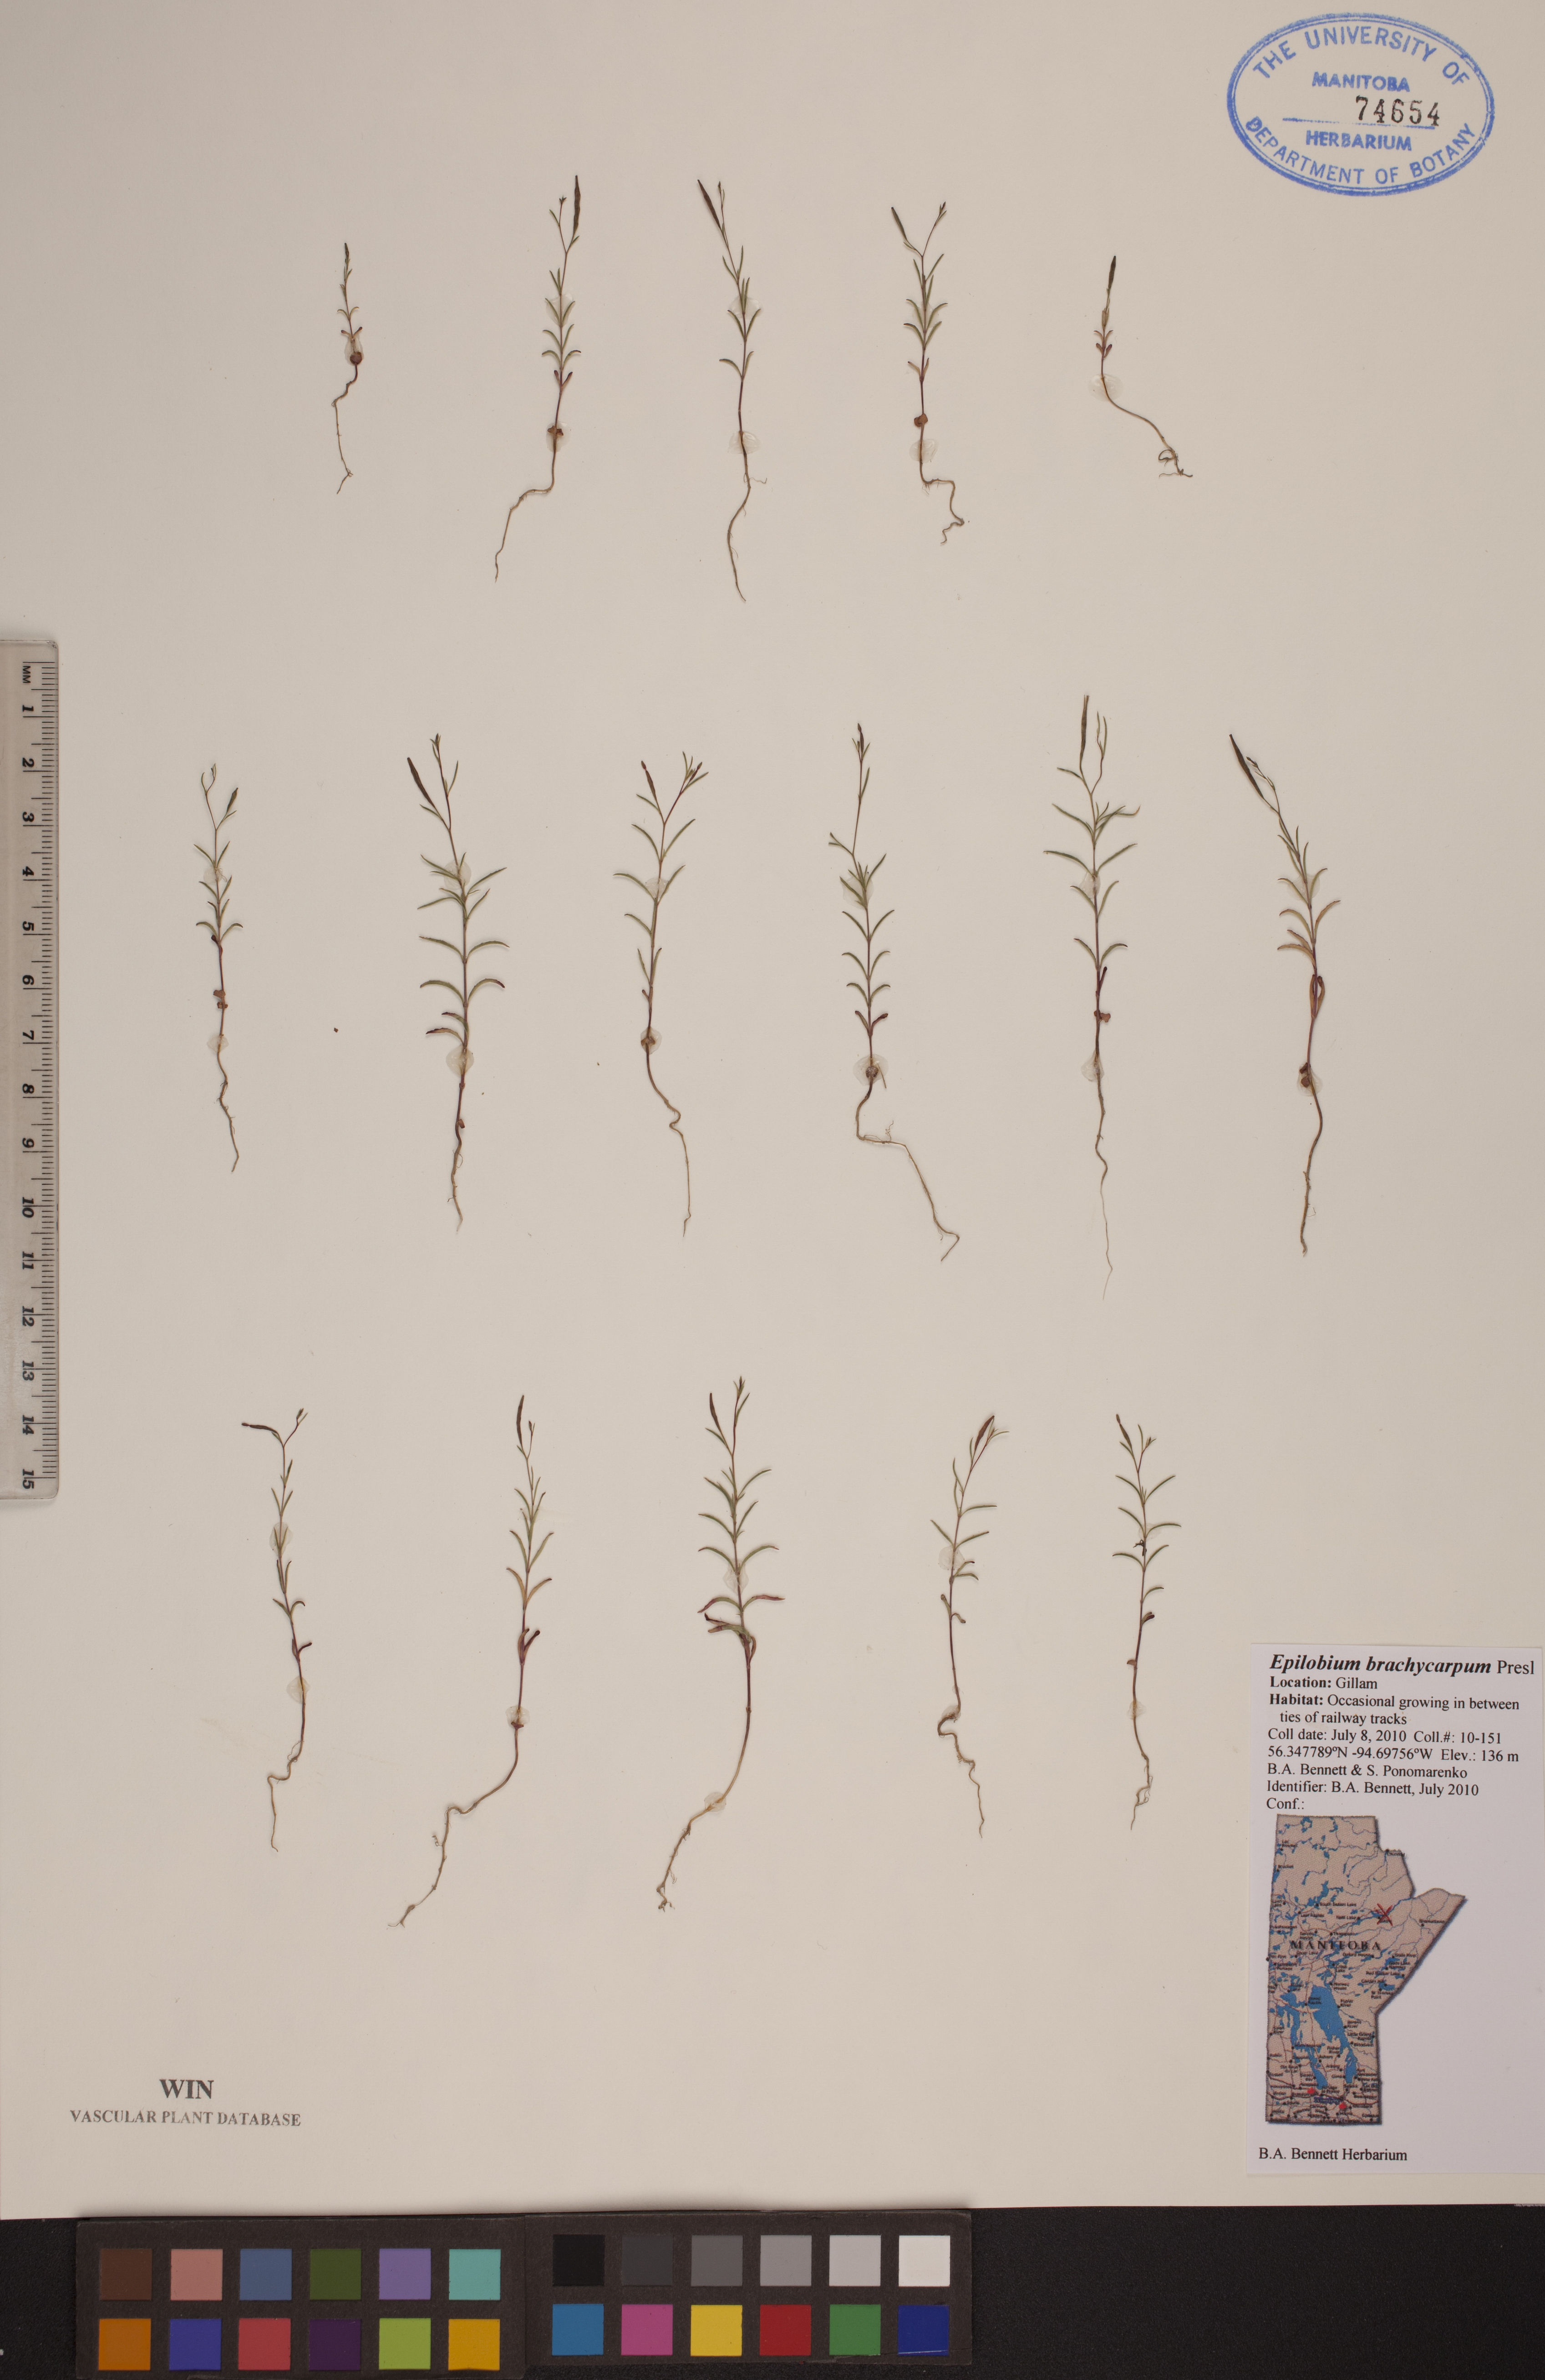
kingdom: Plantae
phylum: Tracheophyta
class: Magnoliopsida
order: Myrtales
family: Onagraceae
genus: Epilobium
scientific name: Epilobium brachycarpum
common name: Annual willowherb
